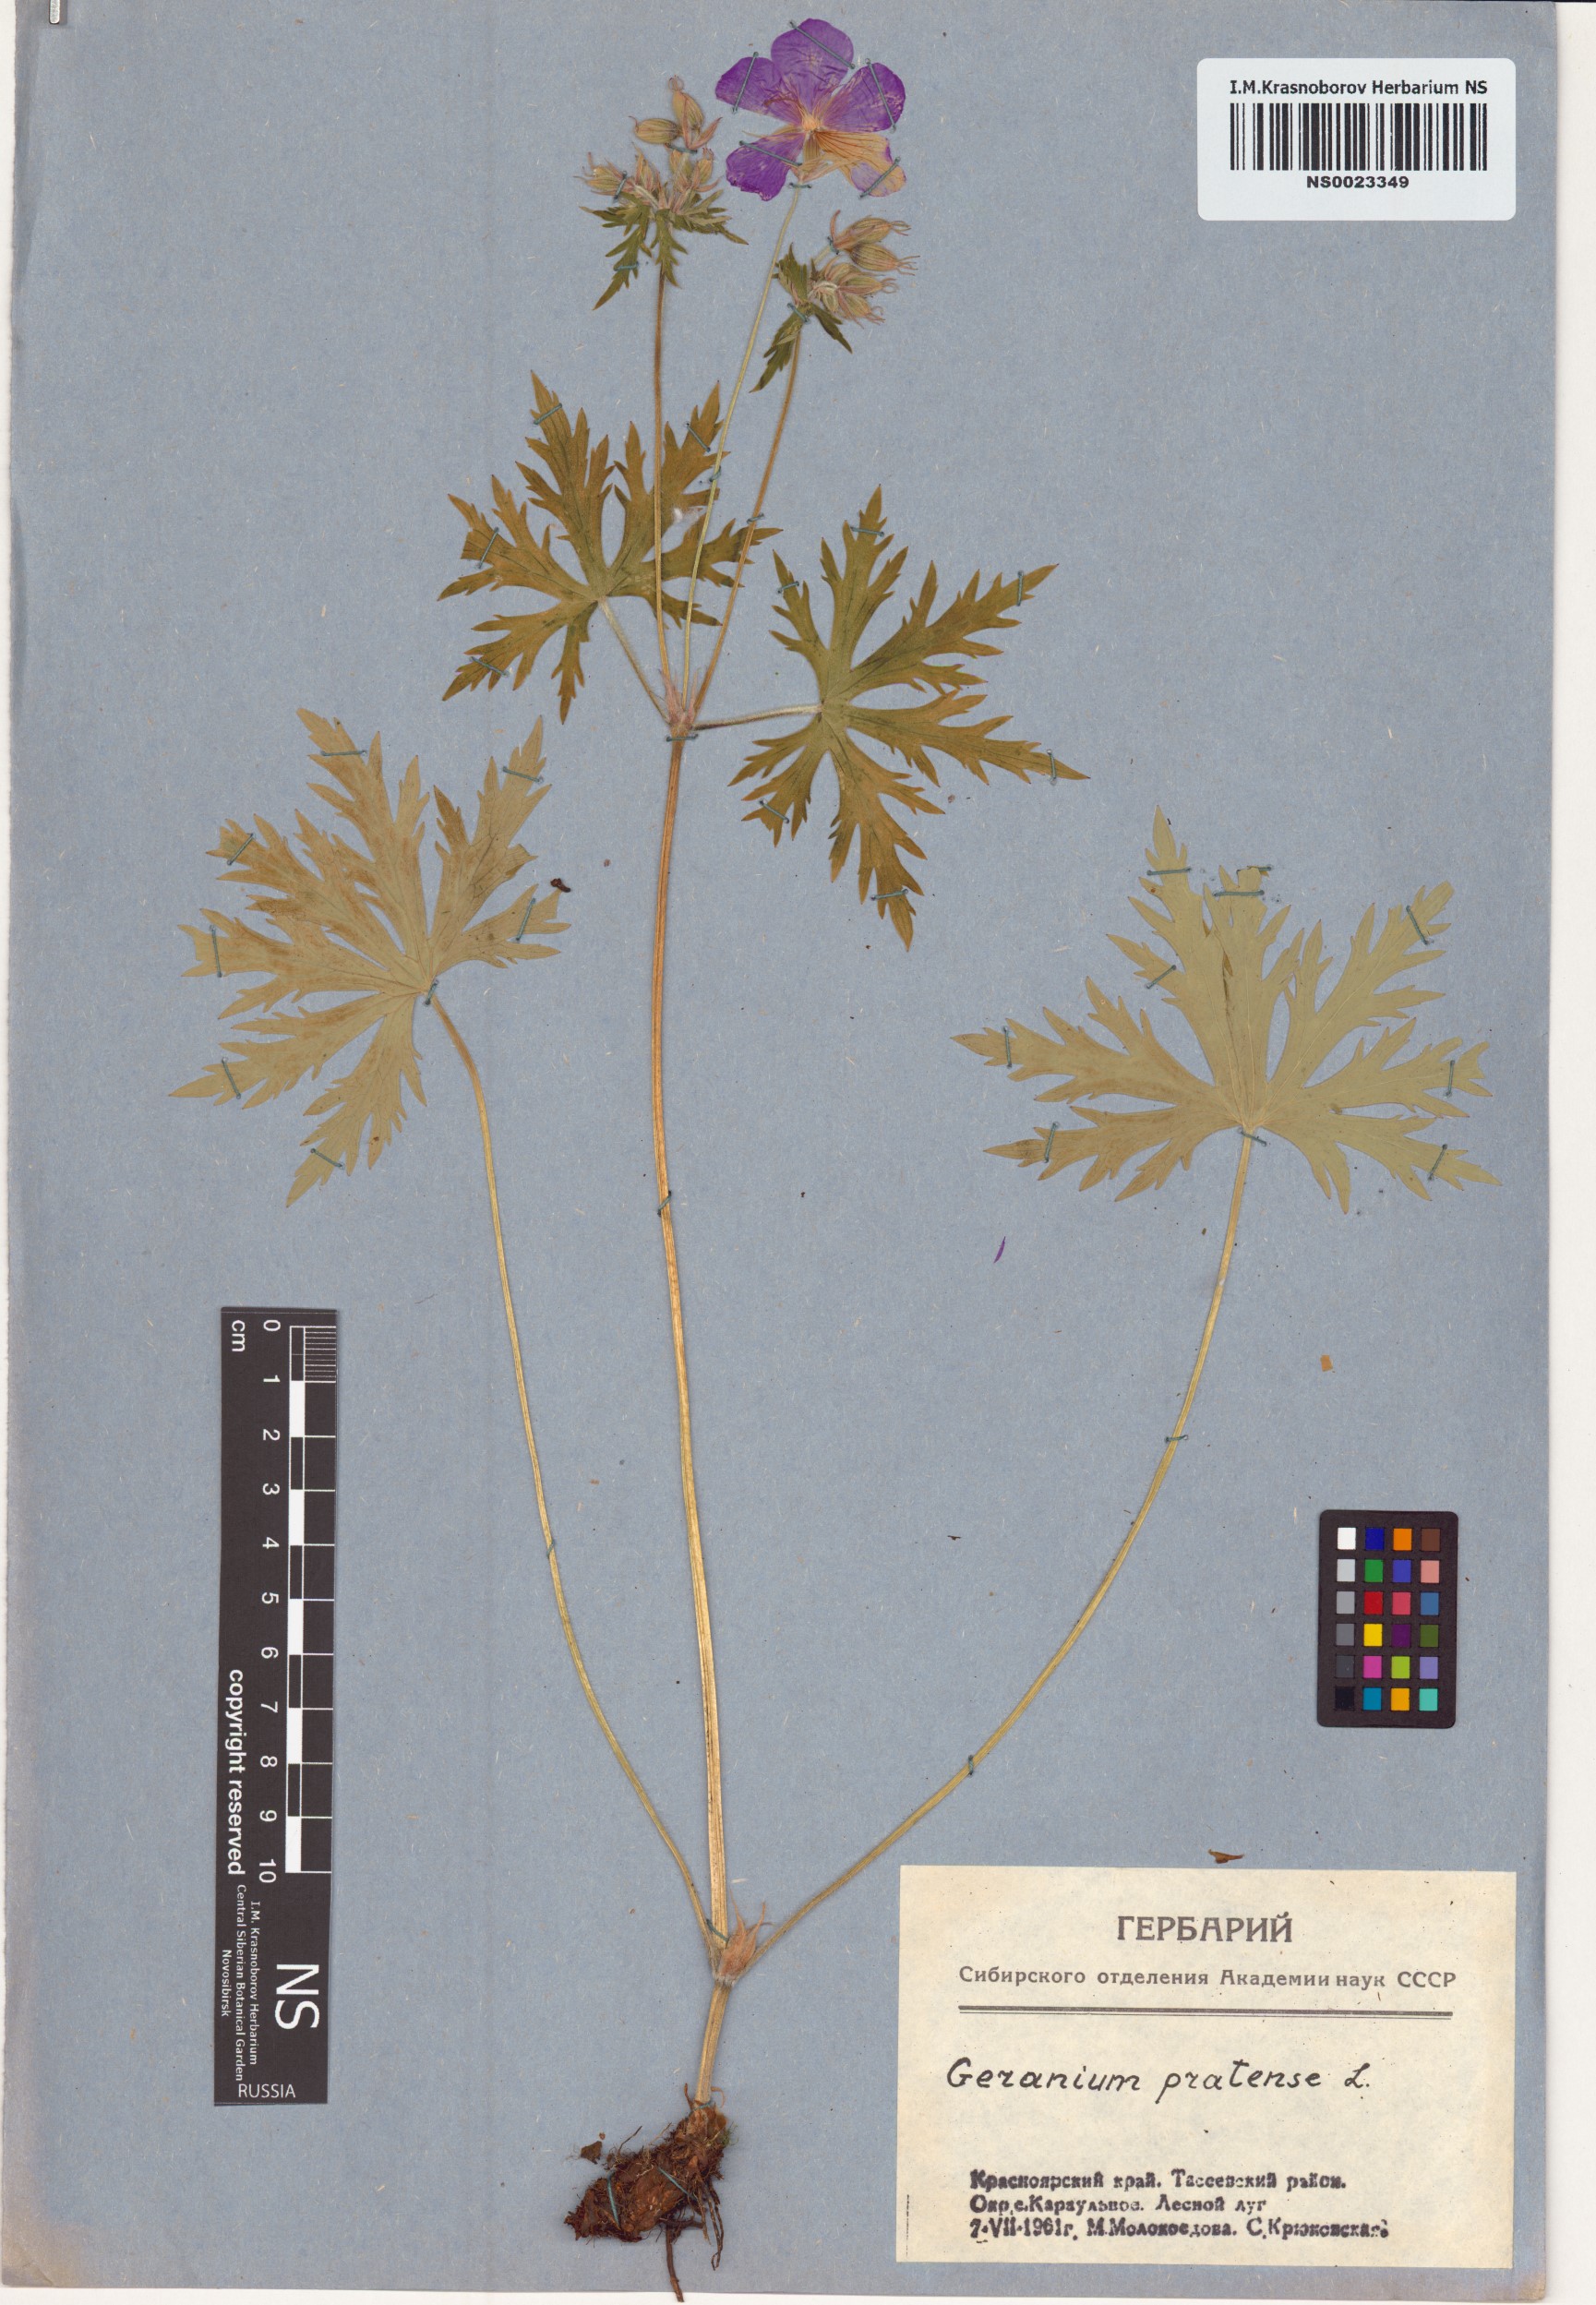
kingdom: Plantae
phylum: Tracheophyta
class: Magnoliopsida
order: Geraniales
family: Geraniaceae
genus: Geranium
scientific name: Geranium pratense
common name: Meadow crane's-bill
